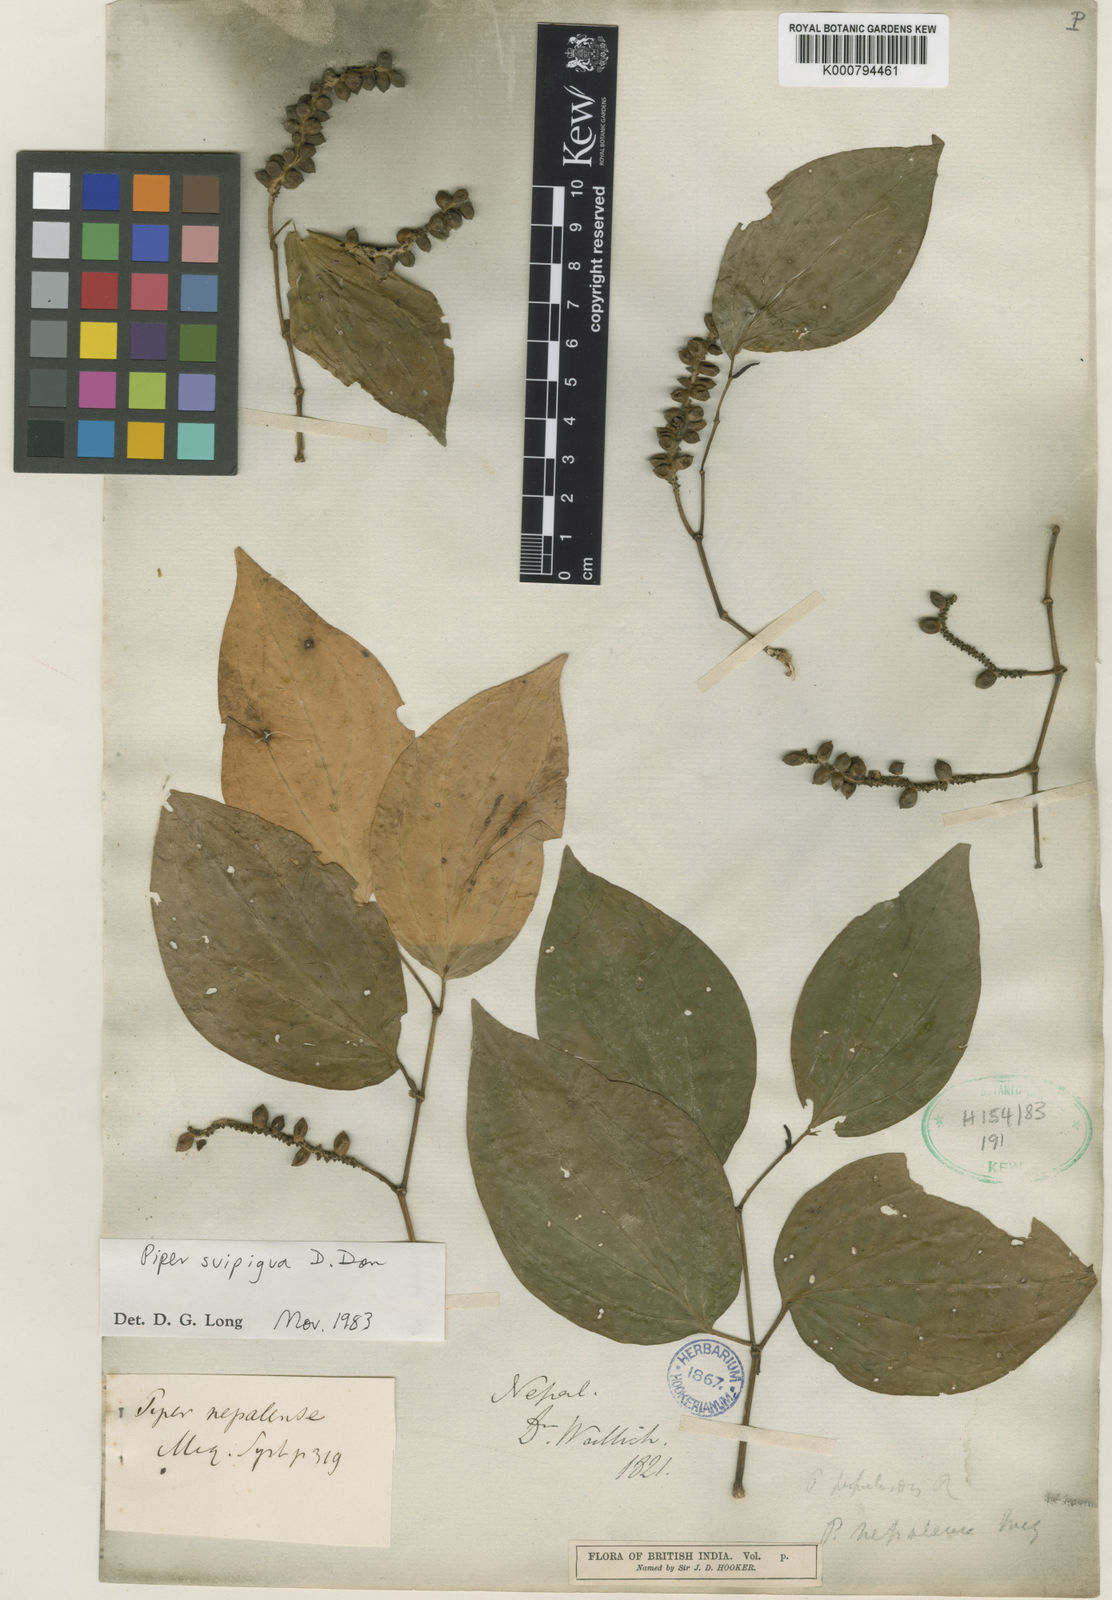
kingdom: Plantae
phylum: Tracheophyta
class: Magnoliopsida
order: Piperales
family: Piperaceae
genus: Piper
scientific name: Piper suipigua
